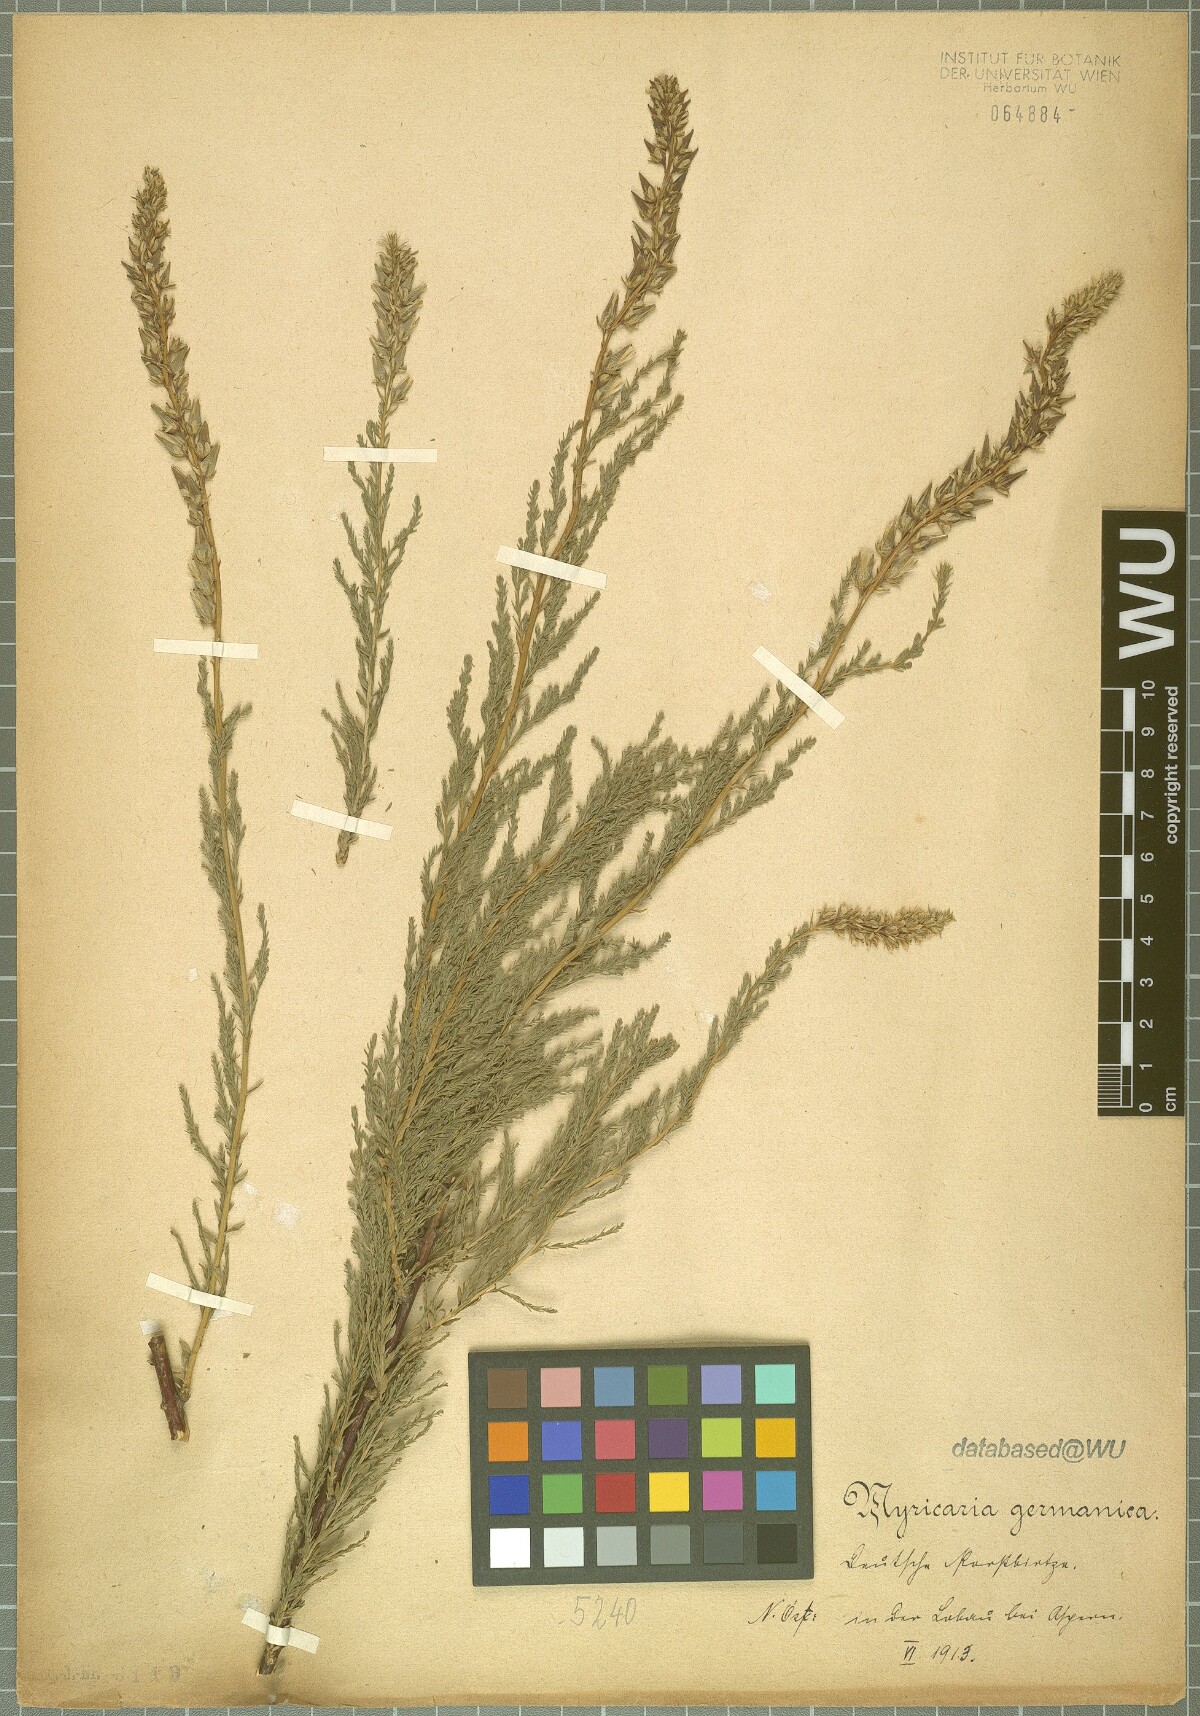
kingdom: Plantae
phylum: Tracheophyta
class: Magnoliopsida
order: Caryophyllales
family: Tamaricaceae
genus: Myricaria
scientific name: Myricaria germanica
